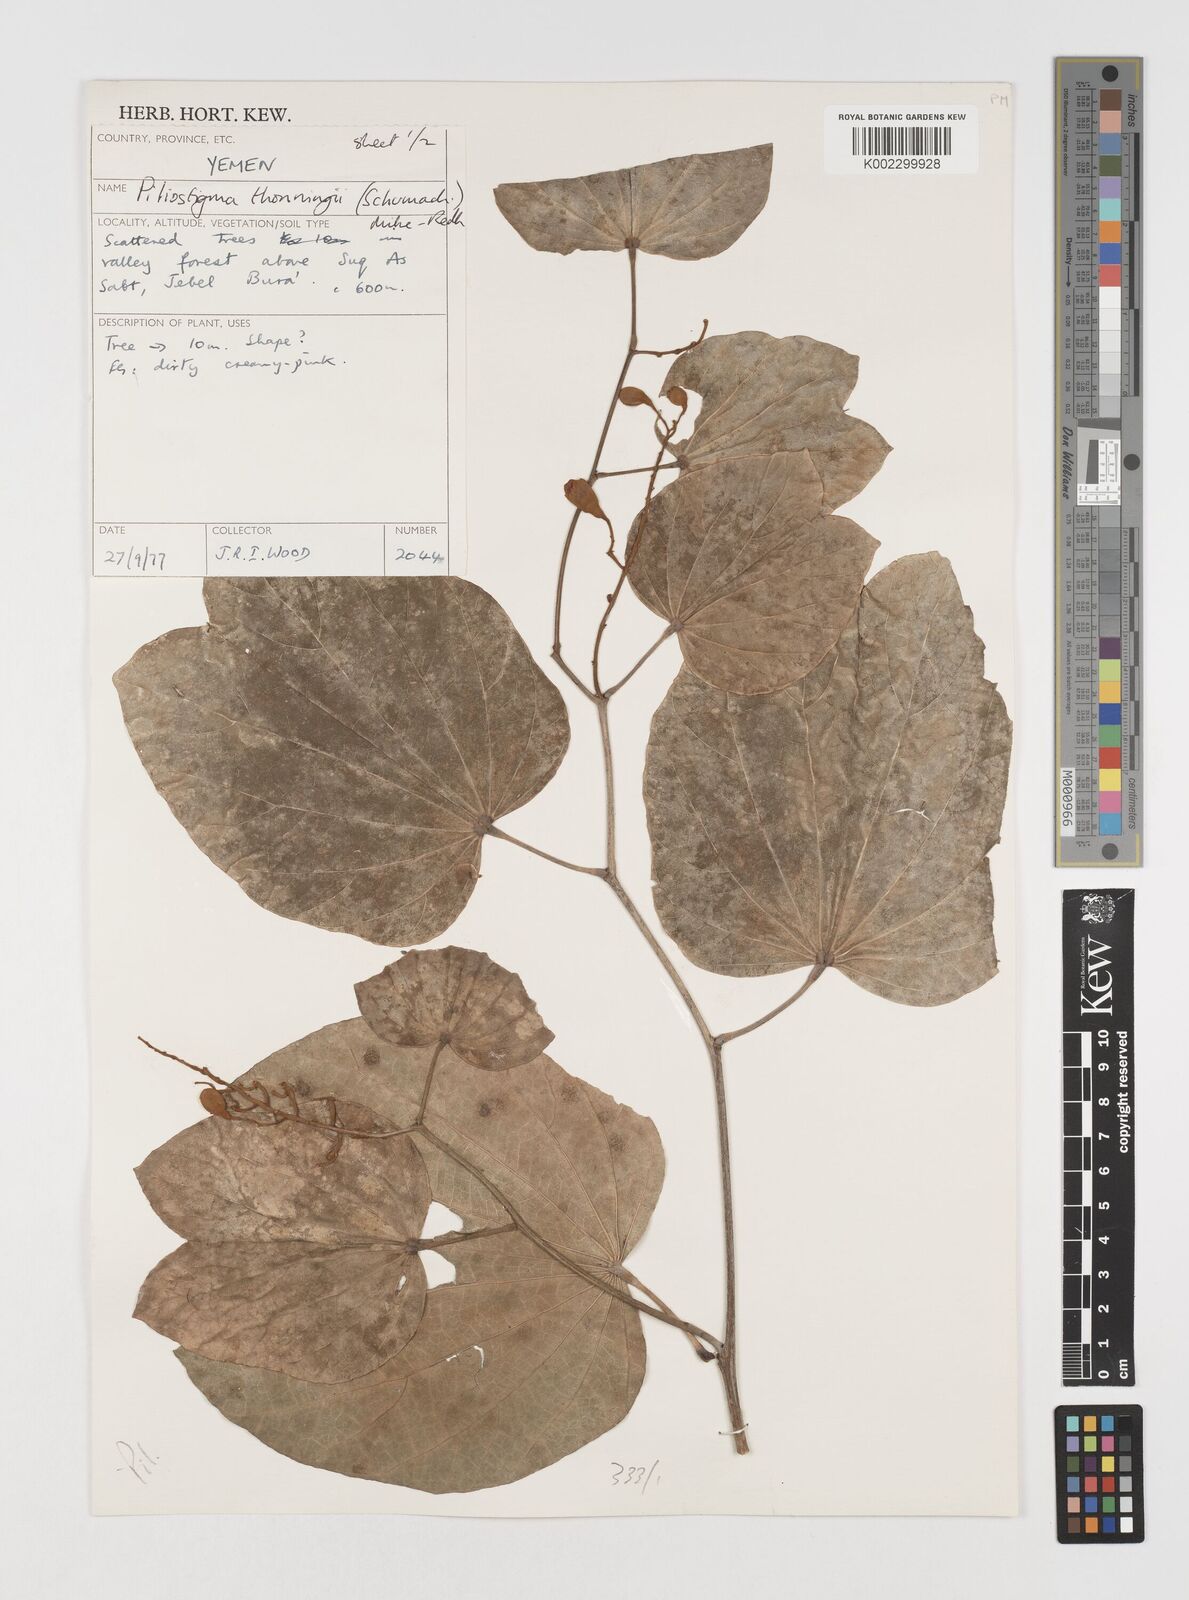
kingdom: Plantae
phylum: Tracheophyta
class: Magnoliopsida
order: Fabales
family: Fabaceae
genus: Piliostigma
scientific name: Piliostigma thonningii
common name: Kao
